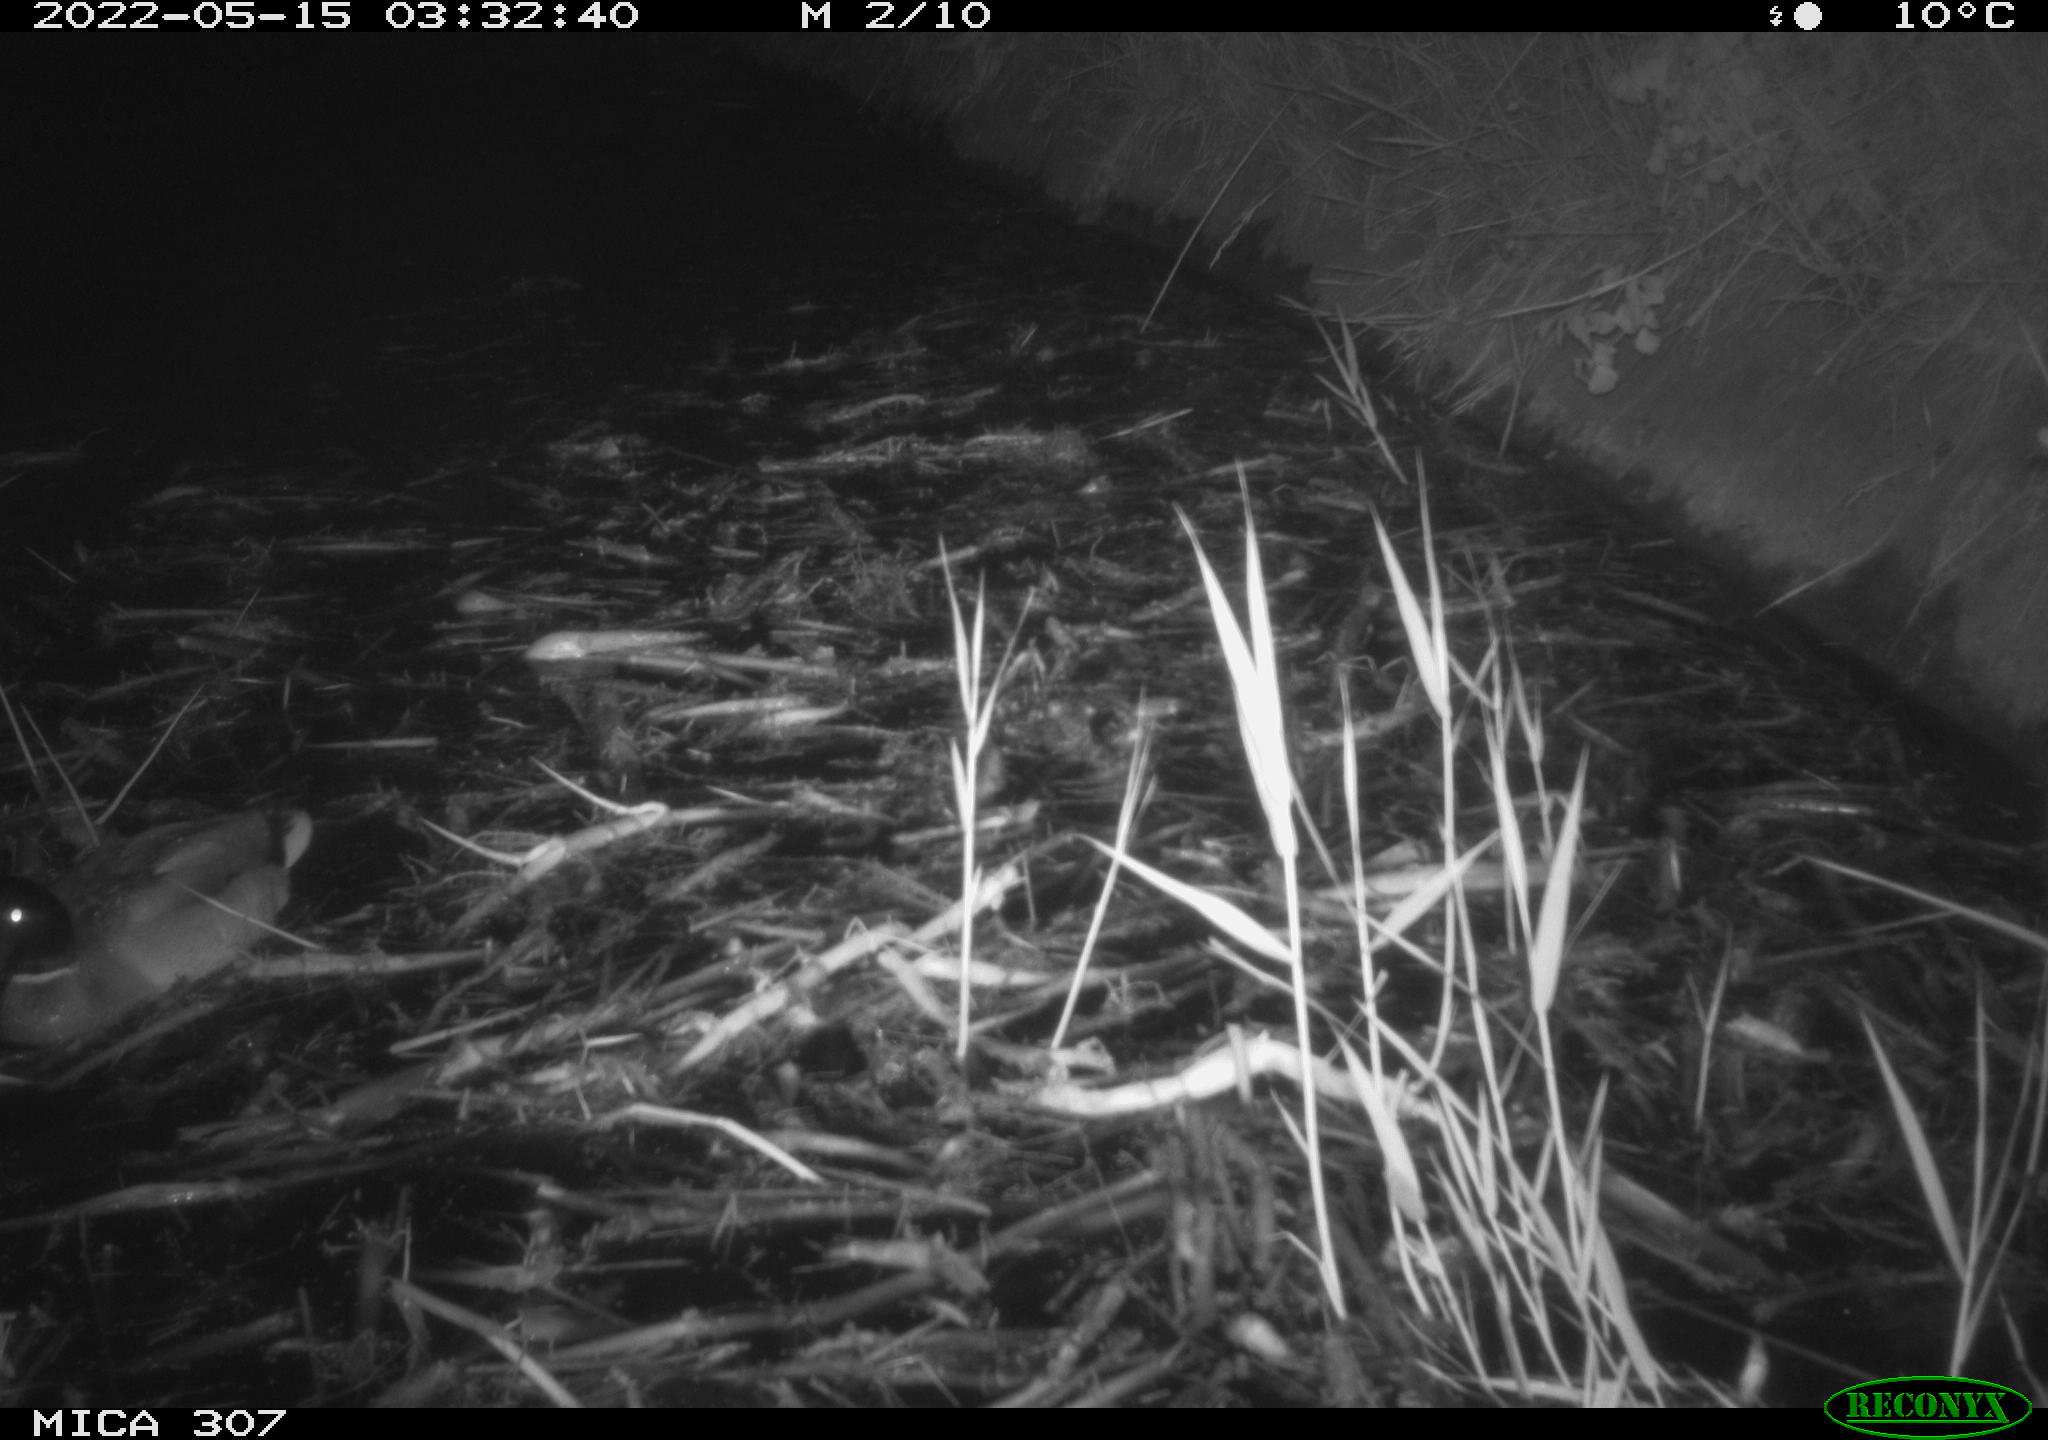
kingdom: Animalia
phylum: Chordata
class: Aves
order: Anseriformes
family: Anatidae
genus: Anas
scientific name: Anas platyrhynchos
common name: Mallard
